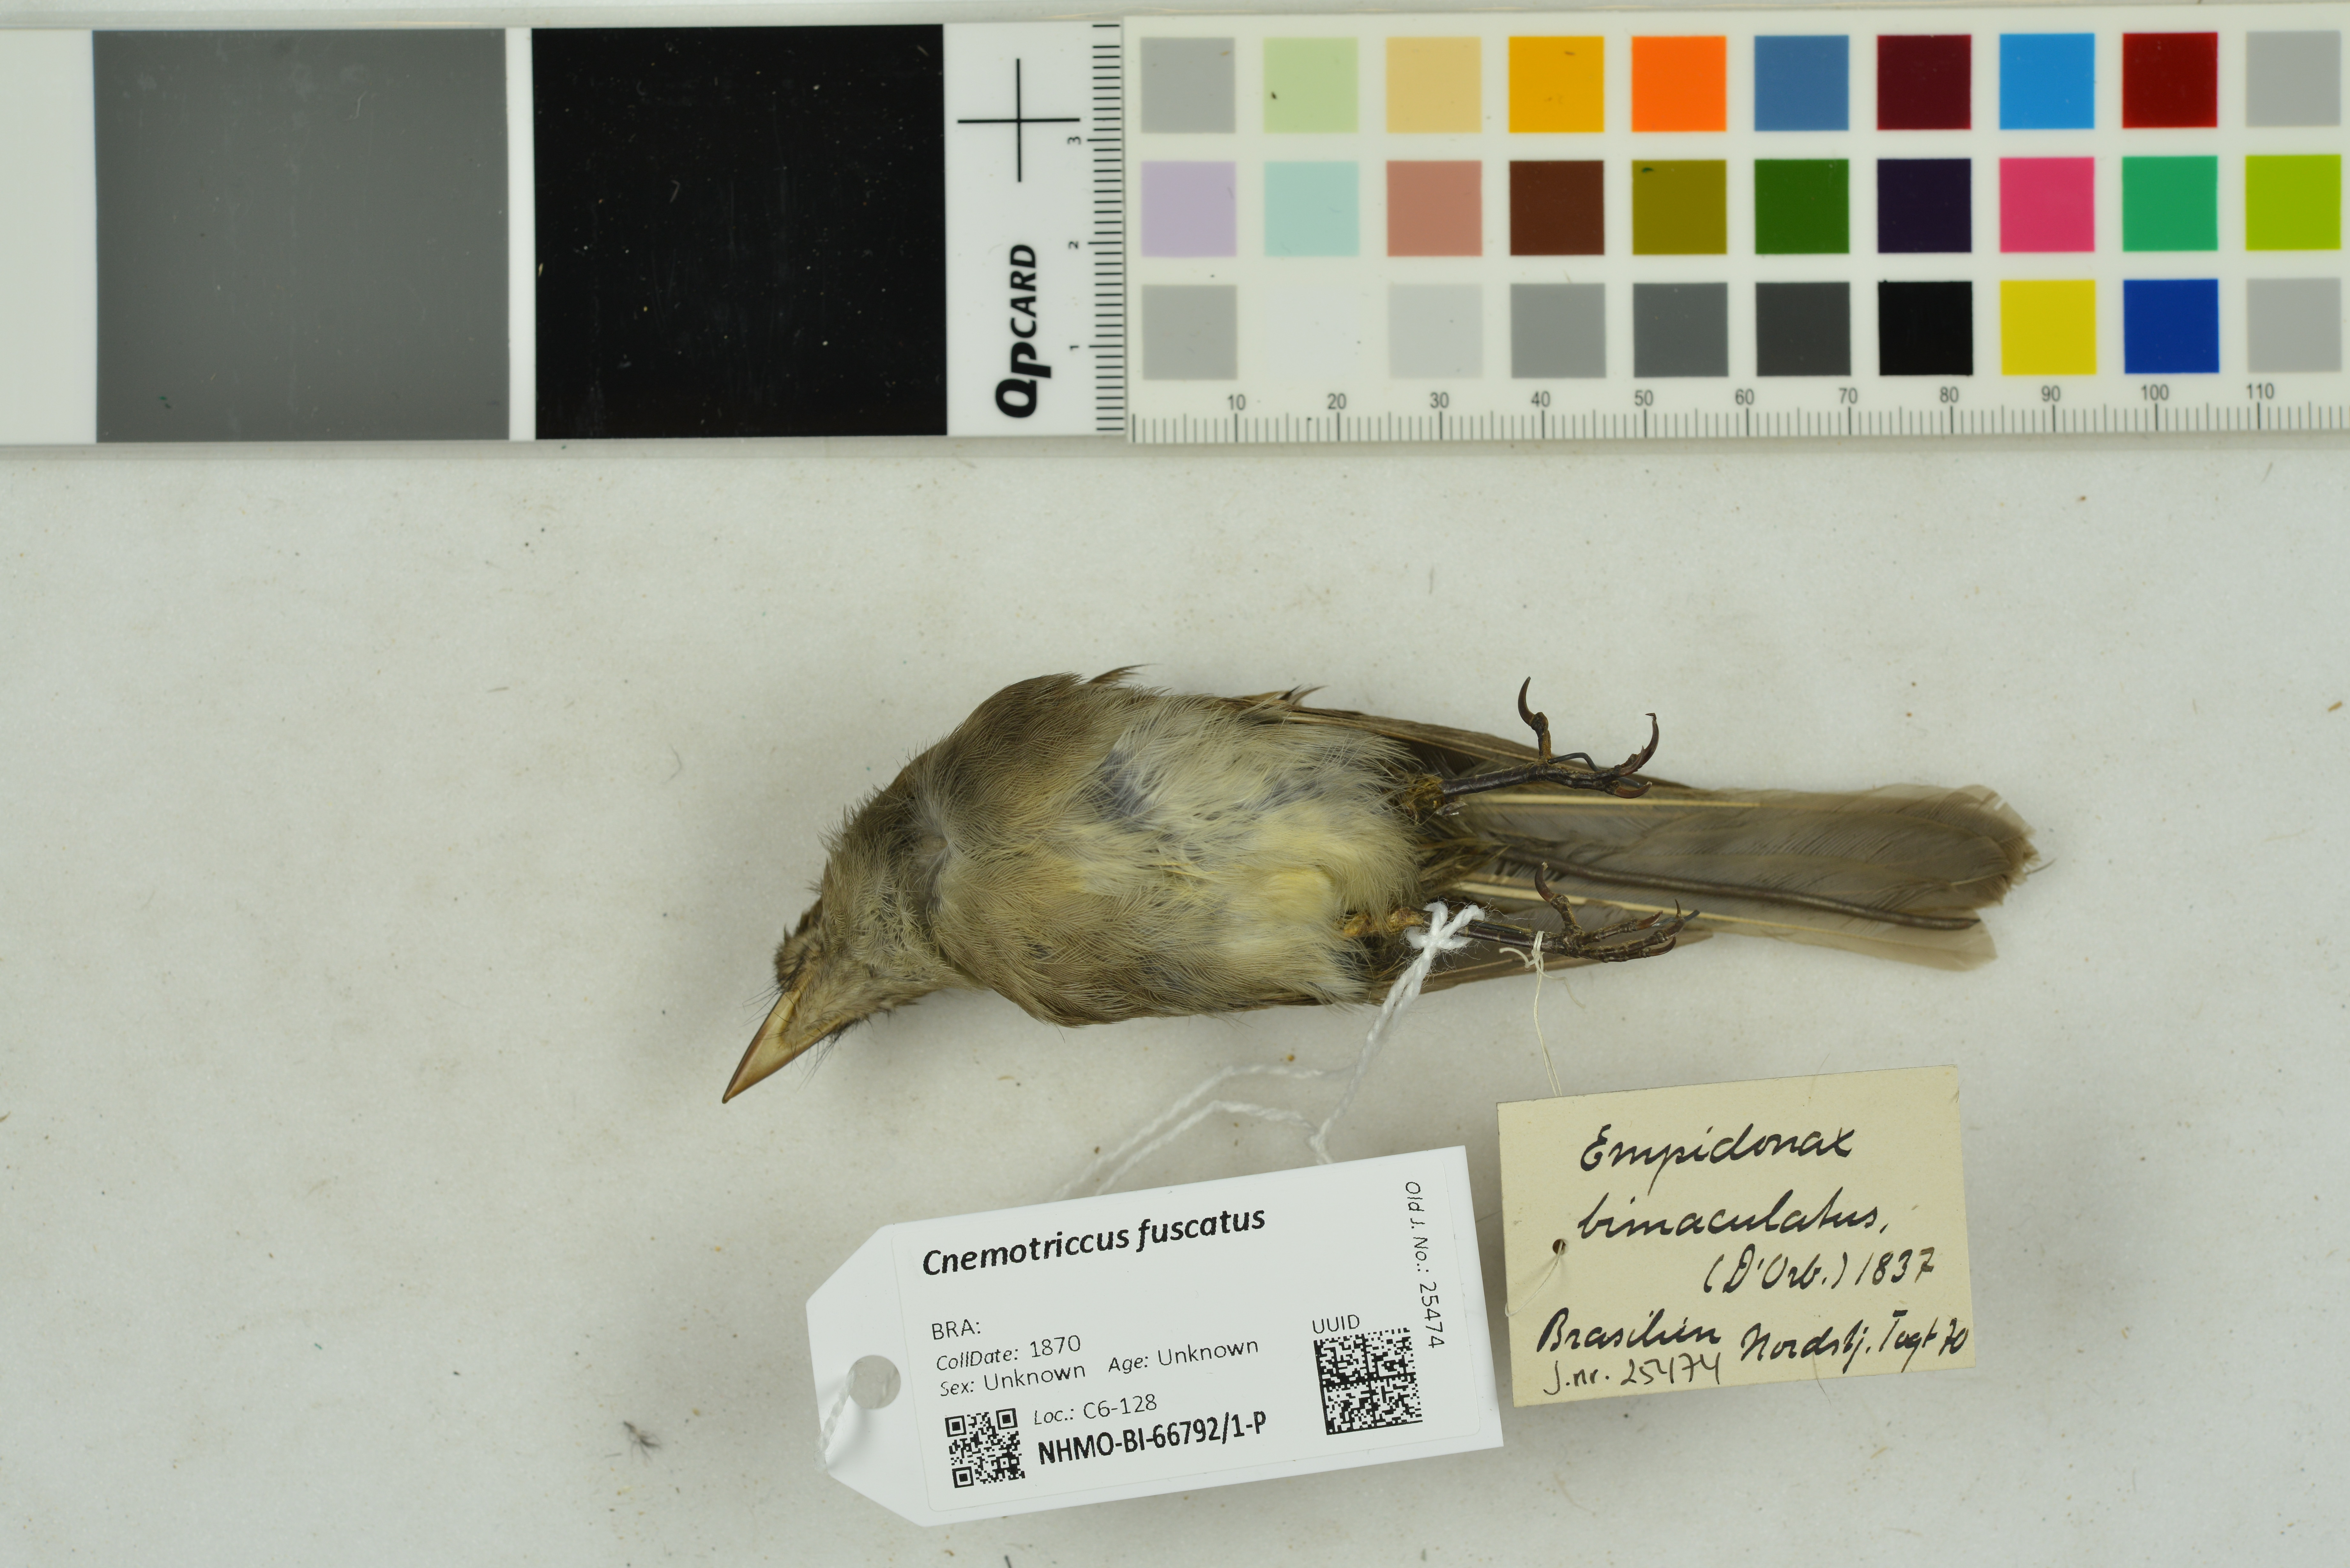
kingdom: Animalia
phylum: Chordata
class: Aves
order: Passeriformes
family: Tyrannidae
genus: Cnemotriccus
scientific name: Cnemotriccus fuscatus
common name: Fuscous flycatcher
